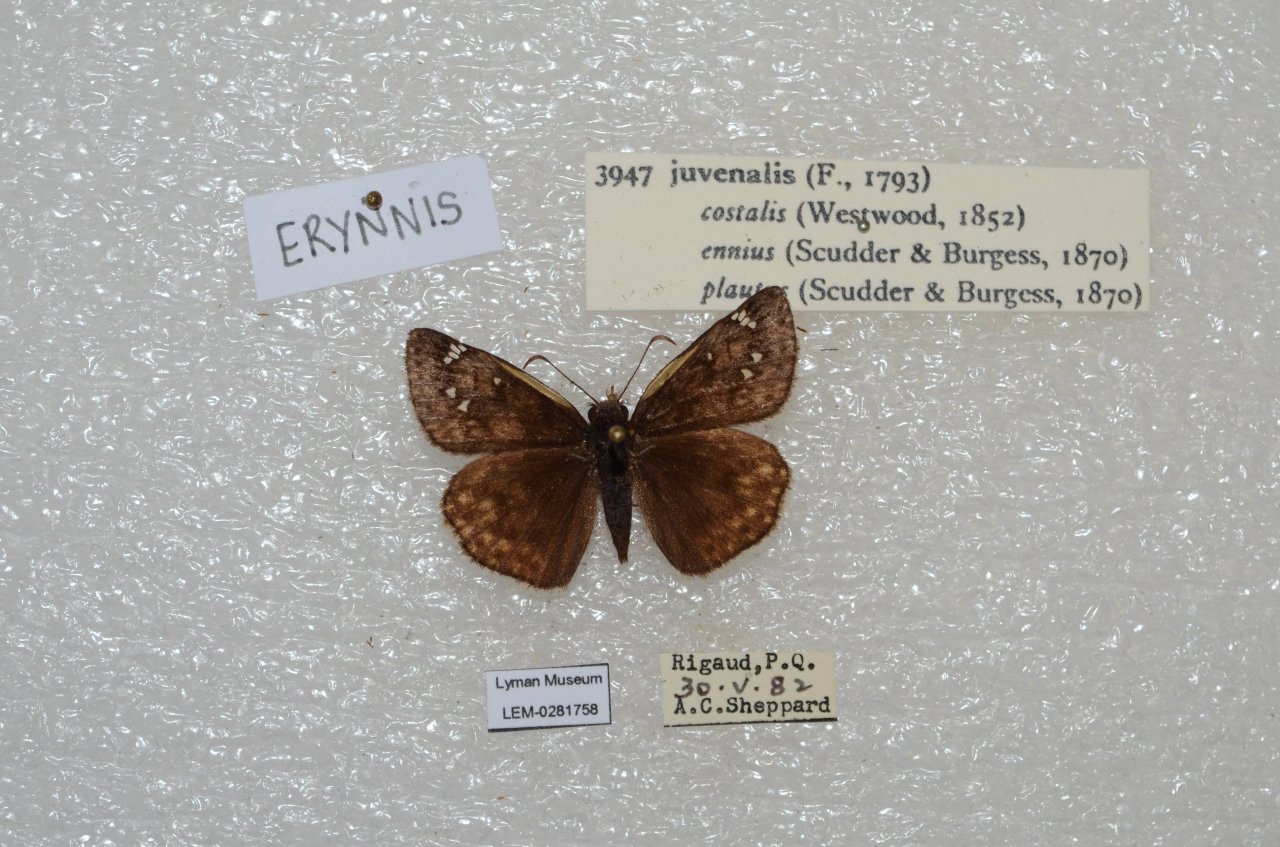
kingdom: Animalia
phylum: Arthropoda
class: Insecta
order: Lepidoptera
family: Hesperiidae
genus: Gesta
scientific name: Gesta
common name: Juvenal's Duskywing
